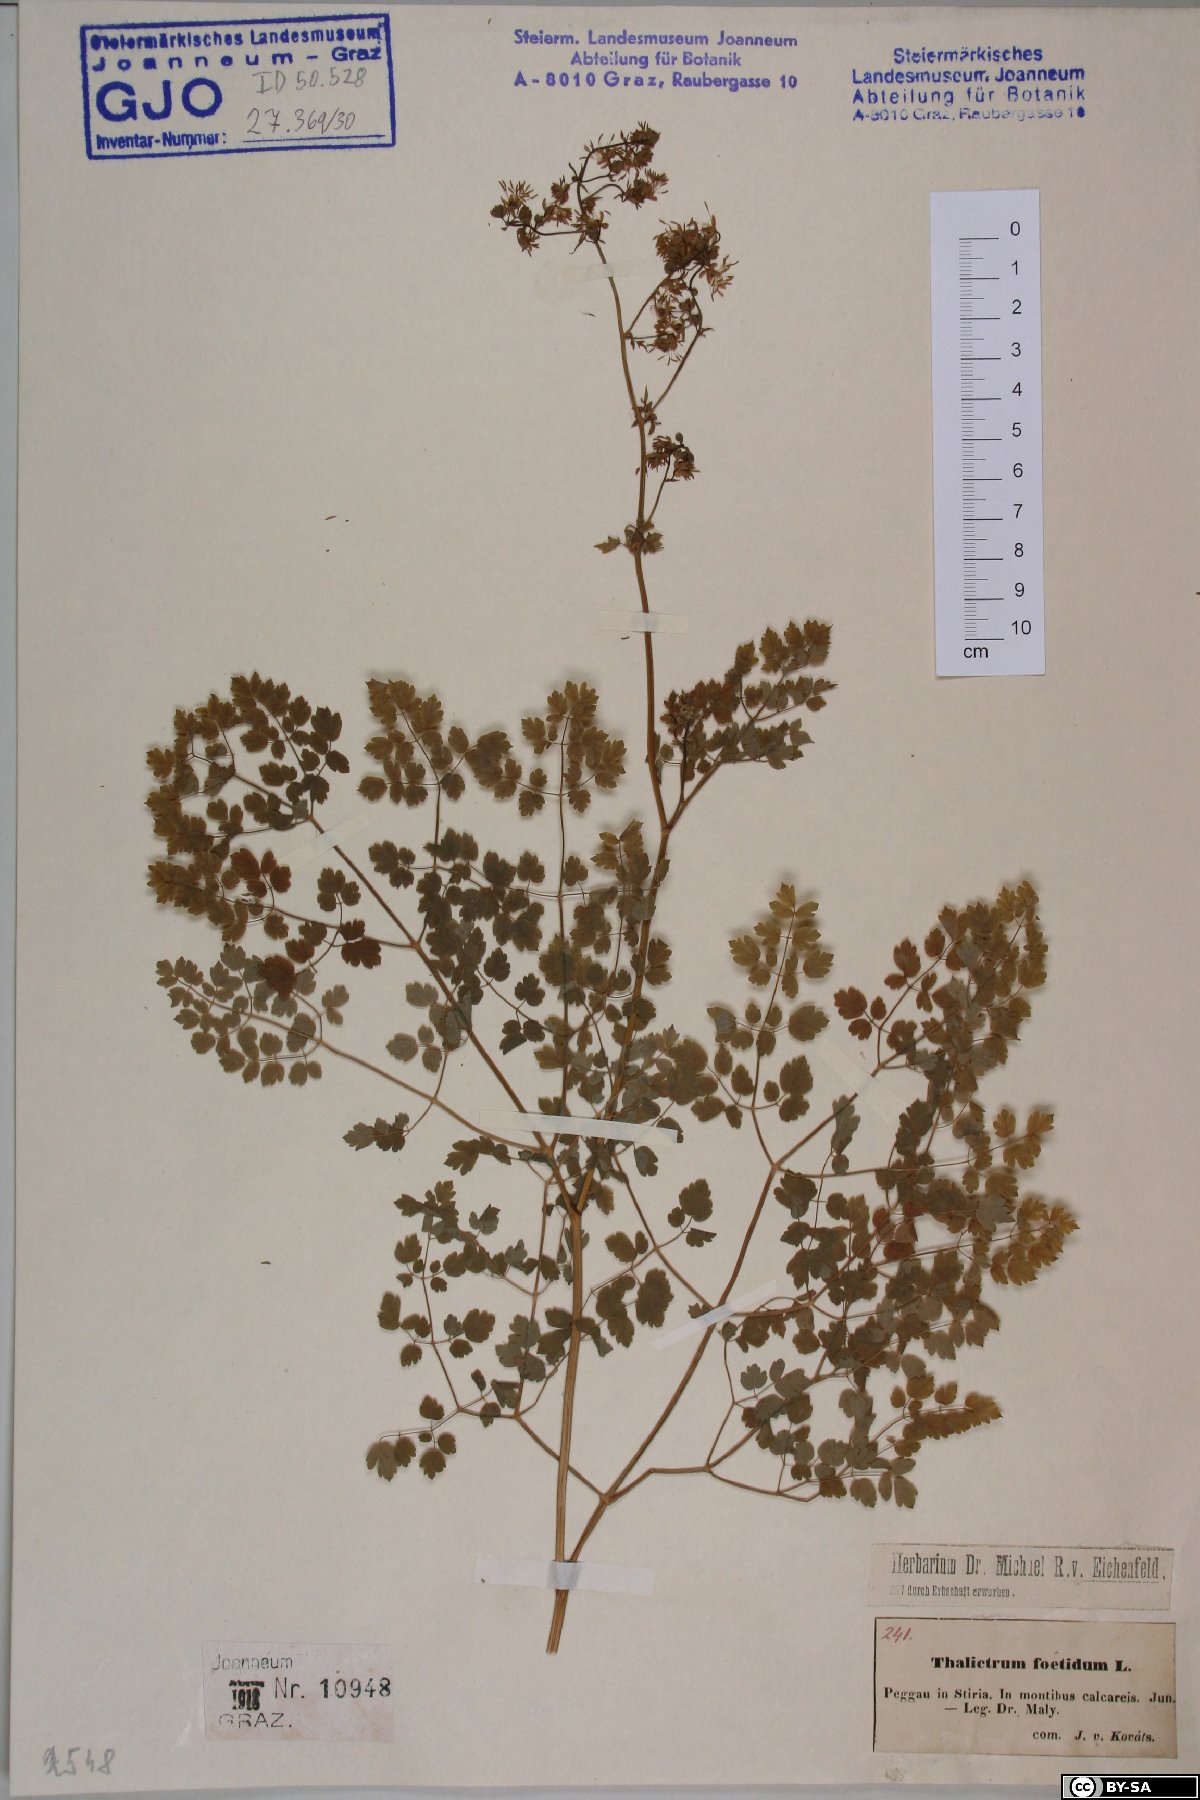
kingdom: Plantae
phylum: Tracheophyta
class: Magnoliopsida
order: Ranunculales
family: Ranunculaceae
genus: Thalictrum
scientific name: Thalictrum foetidum
